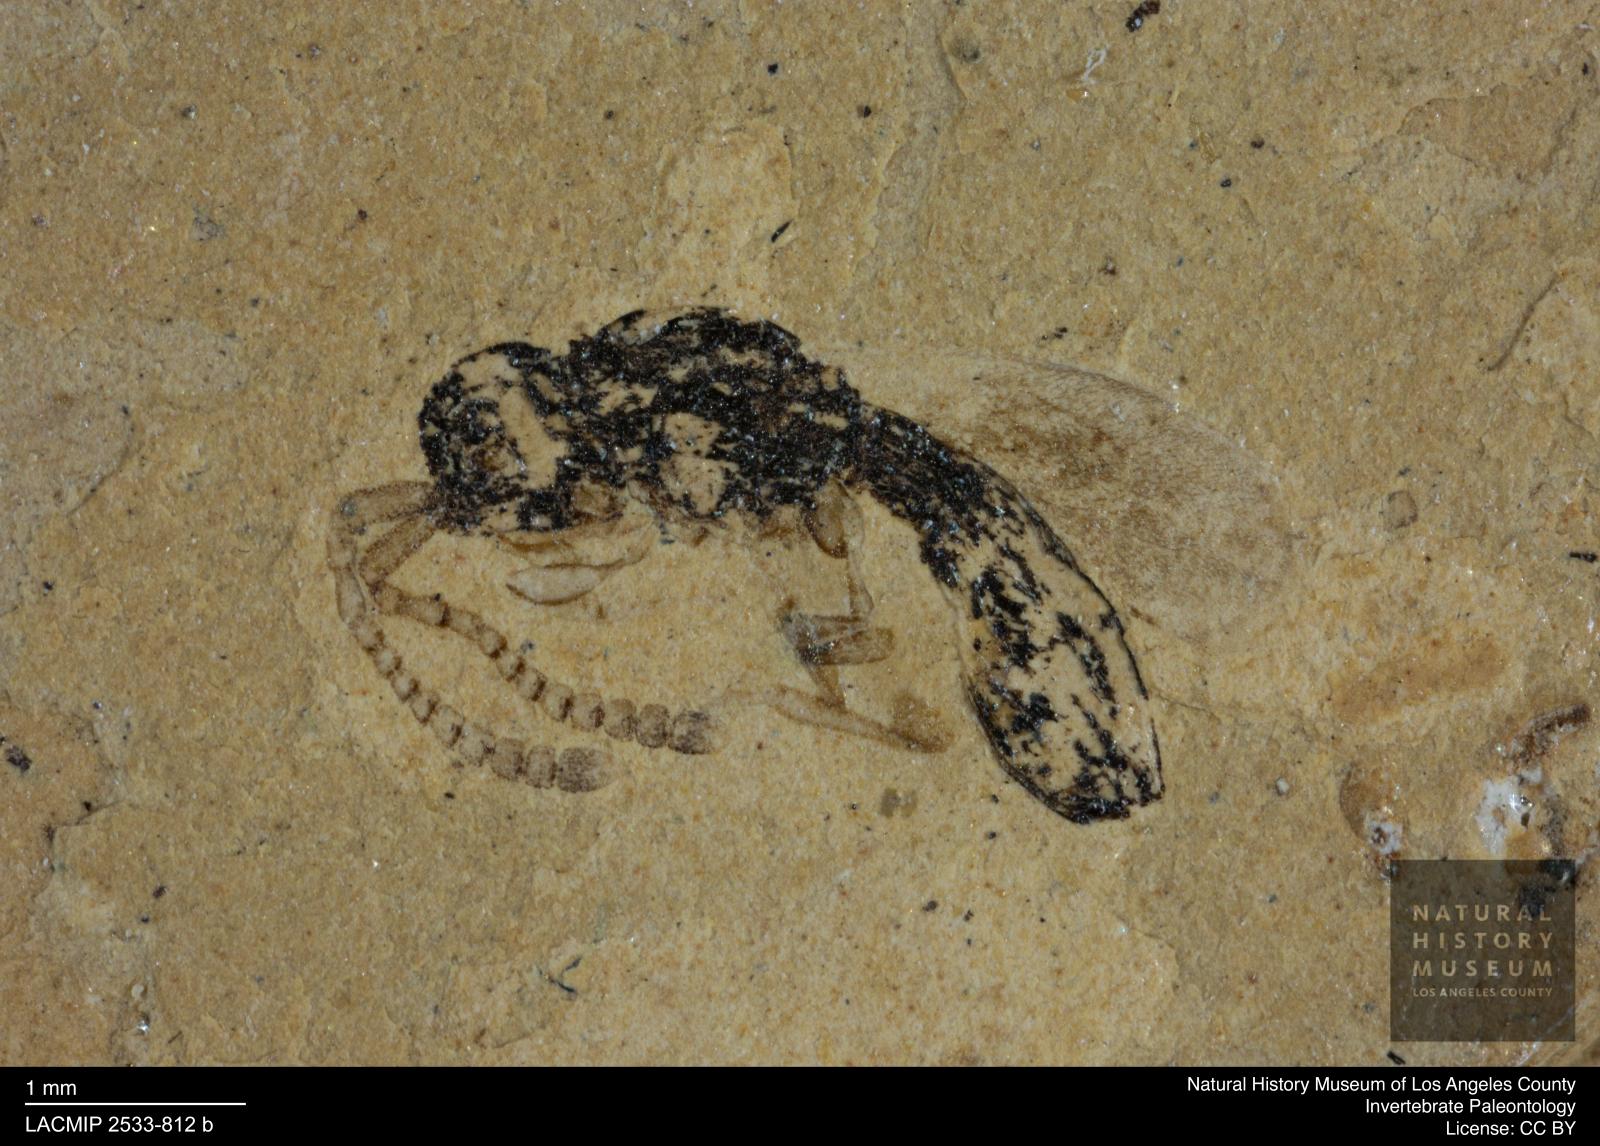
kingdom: Animalia
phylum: Arthropoda
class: Insecta
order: Hemiptera
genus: Diapriites
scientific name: Diapriites insignicornis
